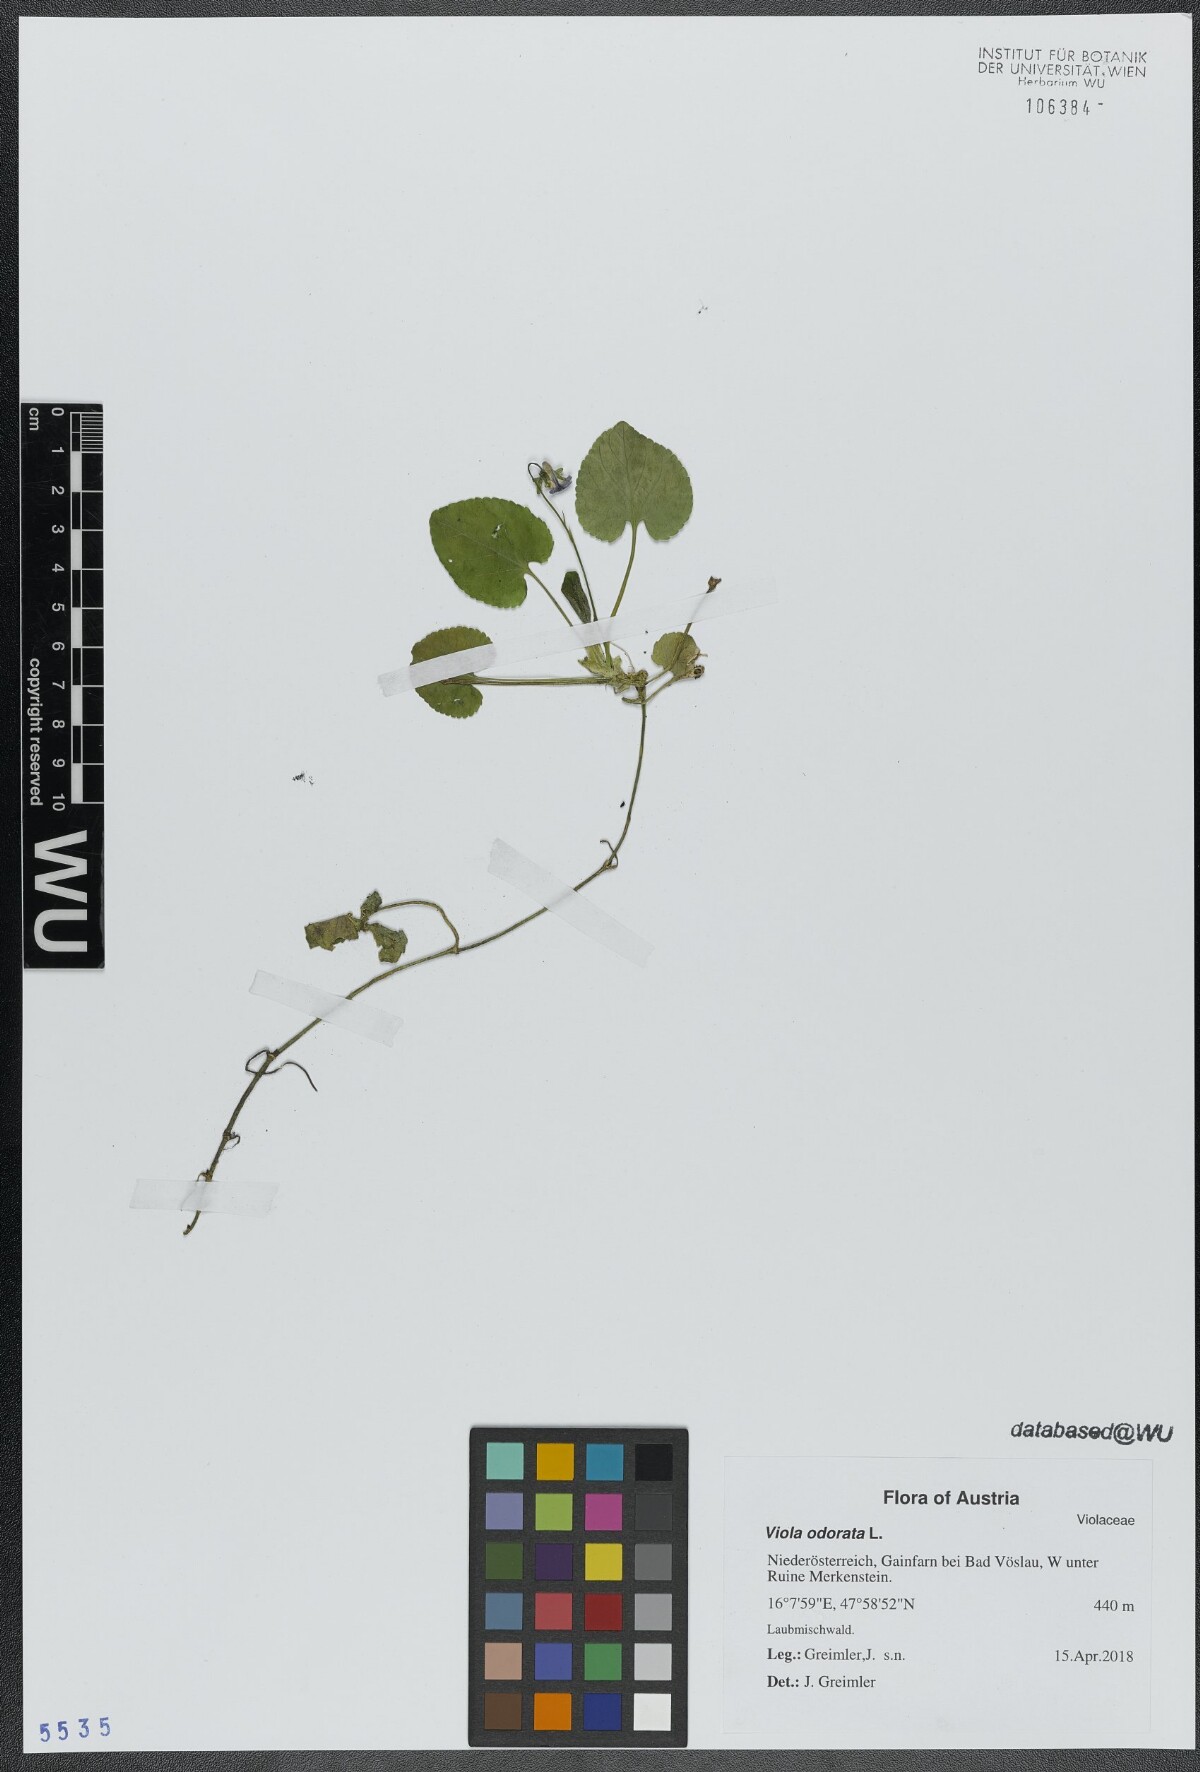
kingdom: Plantae
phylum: Tracheophyta
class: Magnoliopsida
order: Malpighiales
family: Violaceae
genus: Viola
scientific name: Viola odorata
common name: Sweet violet
